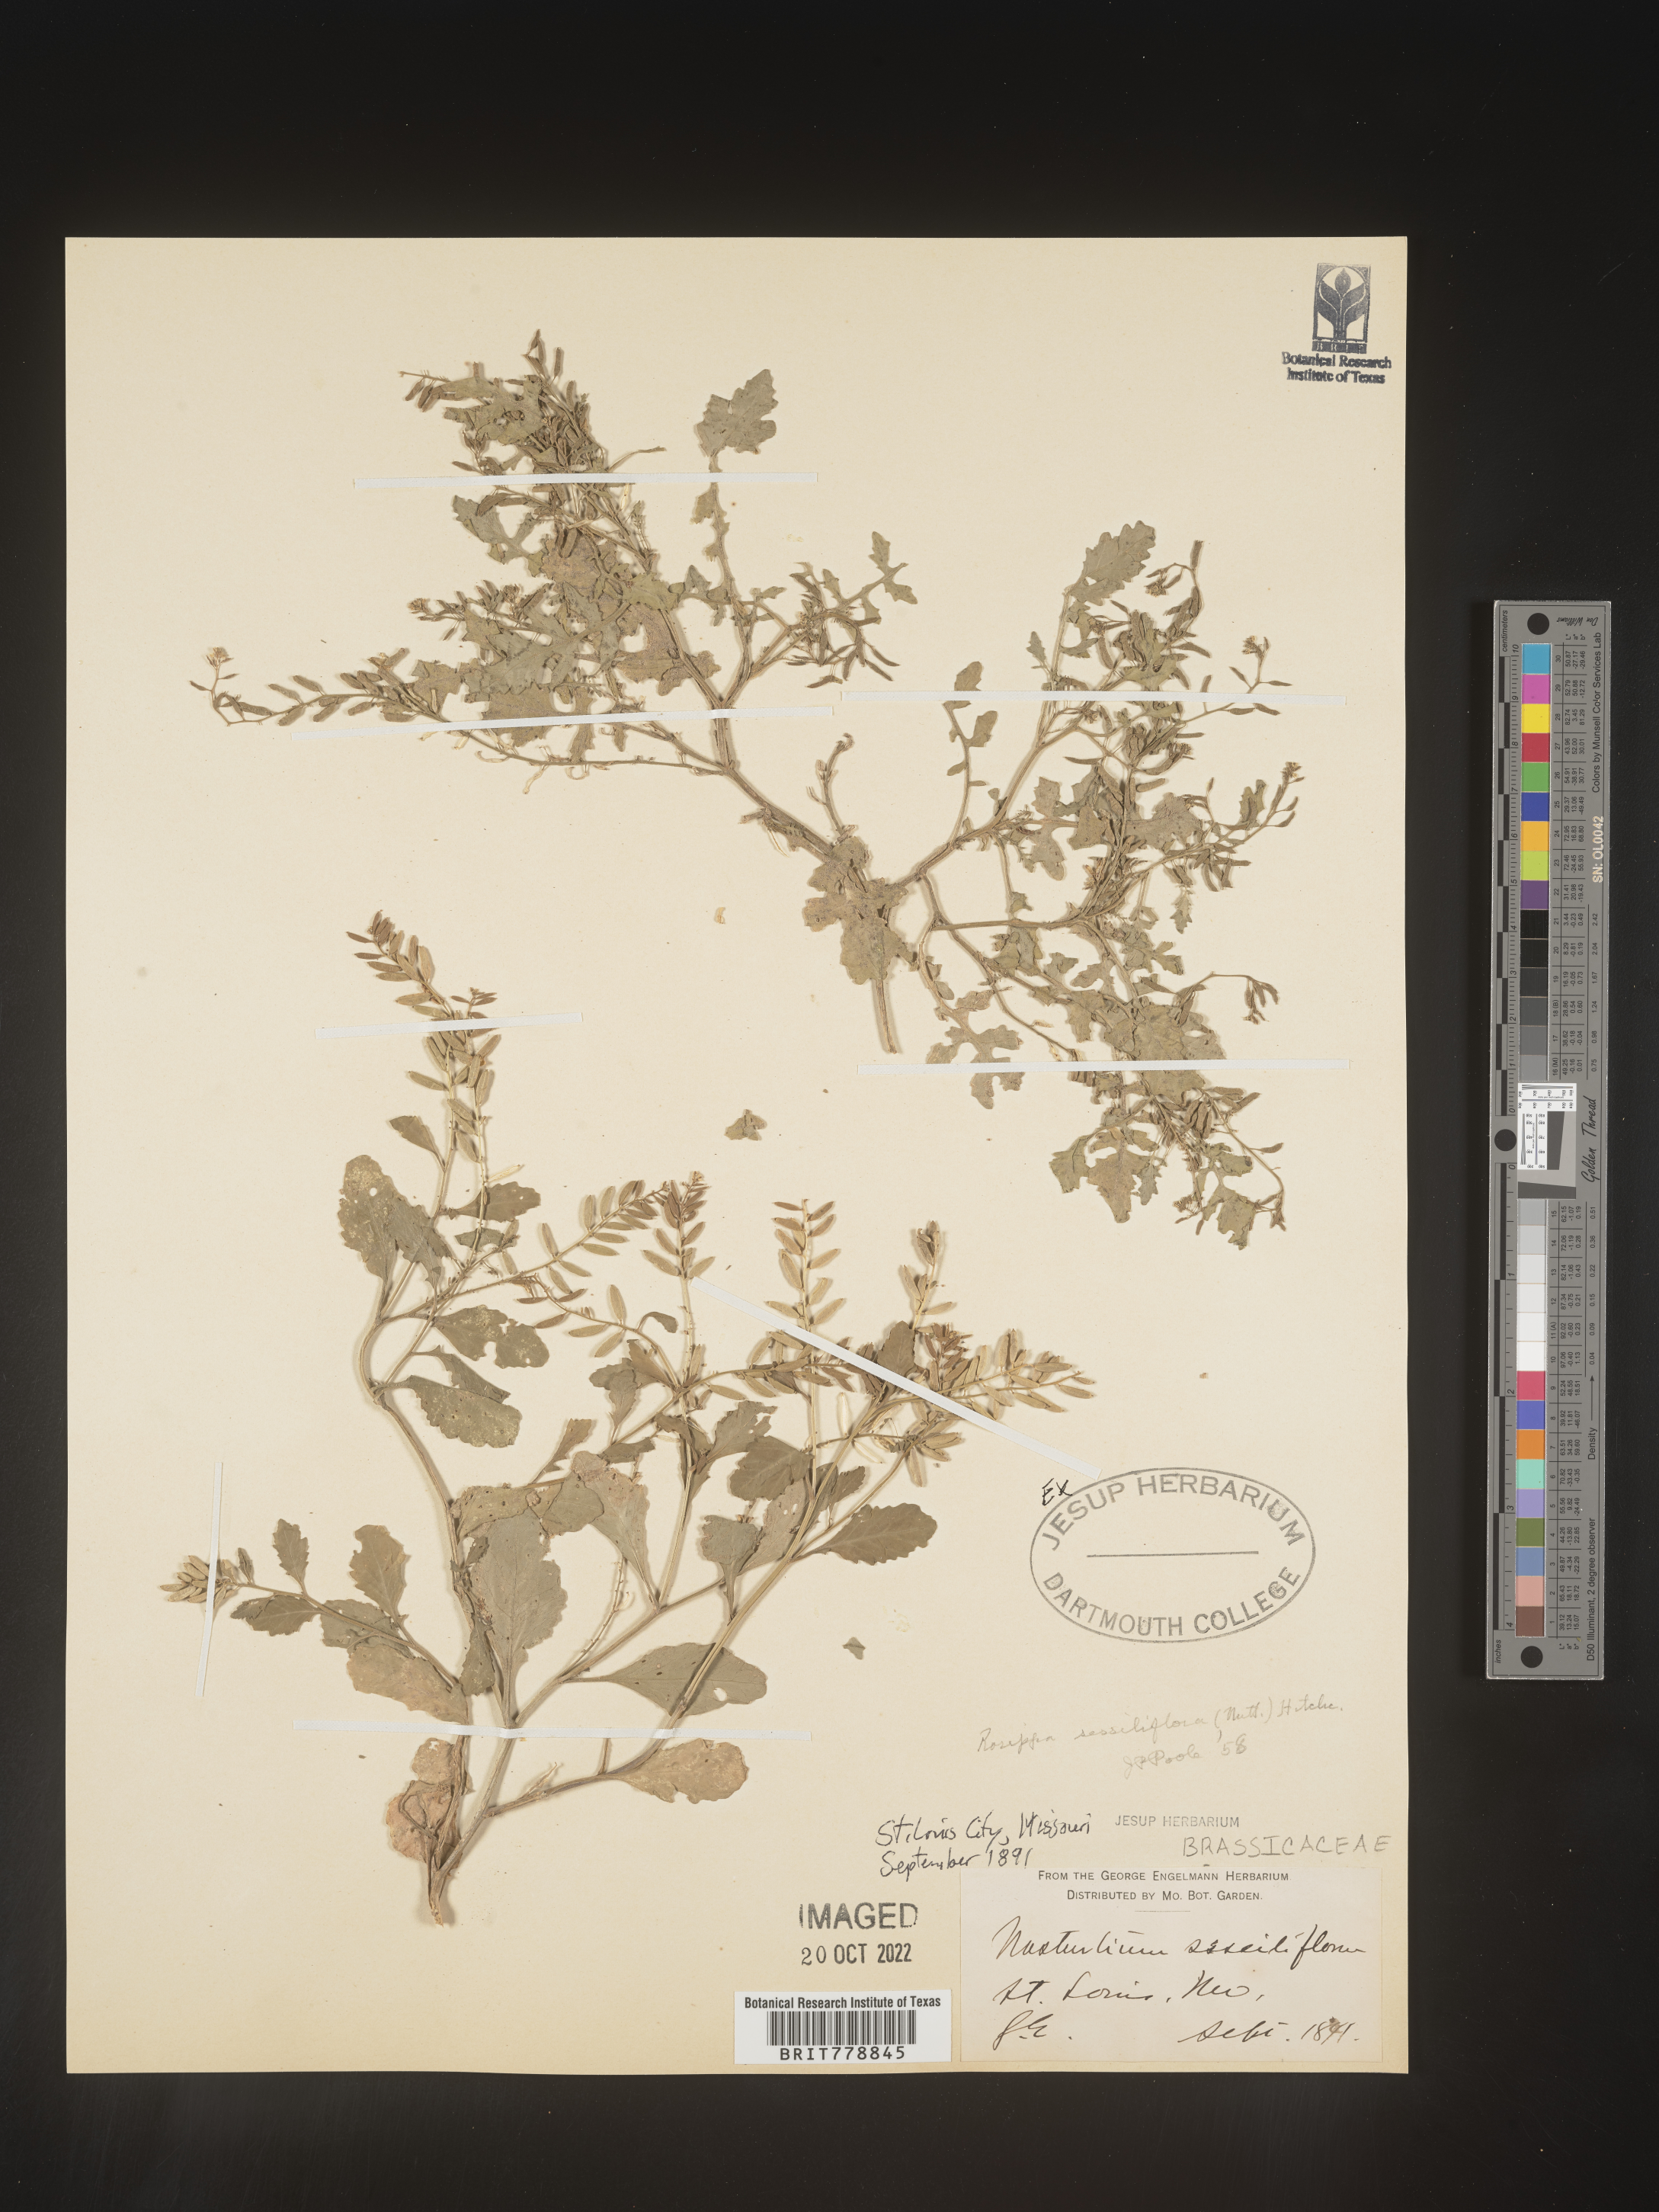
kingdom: Plantae
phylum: Tracheophyta
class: Magnoliopsida
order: Brassicales
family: Brassicaceae
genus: Rorippa
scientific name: Rorippa sessiliflora
